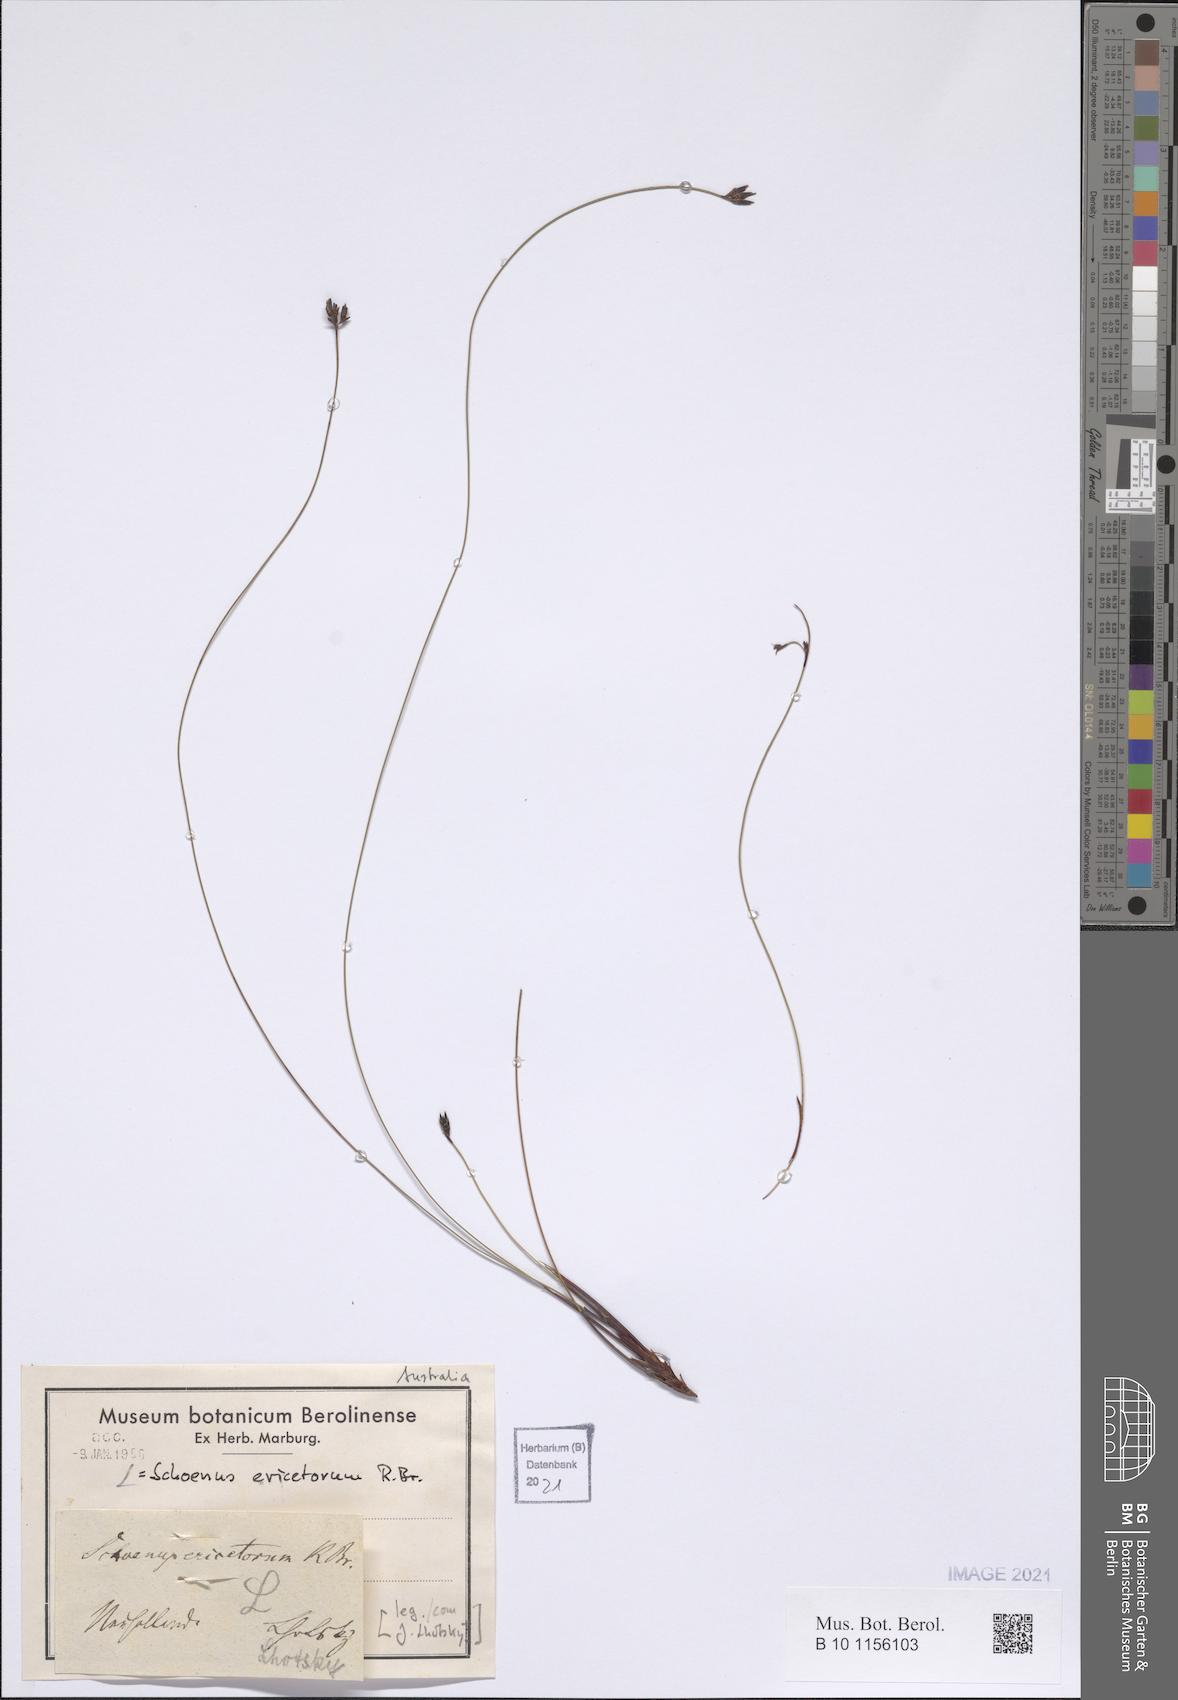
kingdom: Plantae
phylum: Tracheophyta
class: Liliopsida
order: Poales
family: Cyperaceae
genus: Schoenus
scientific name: Schoenus ericetorum
